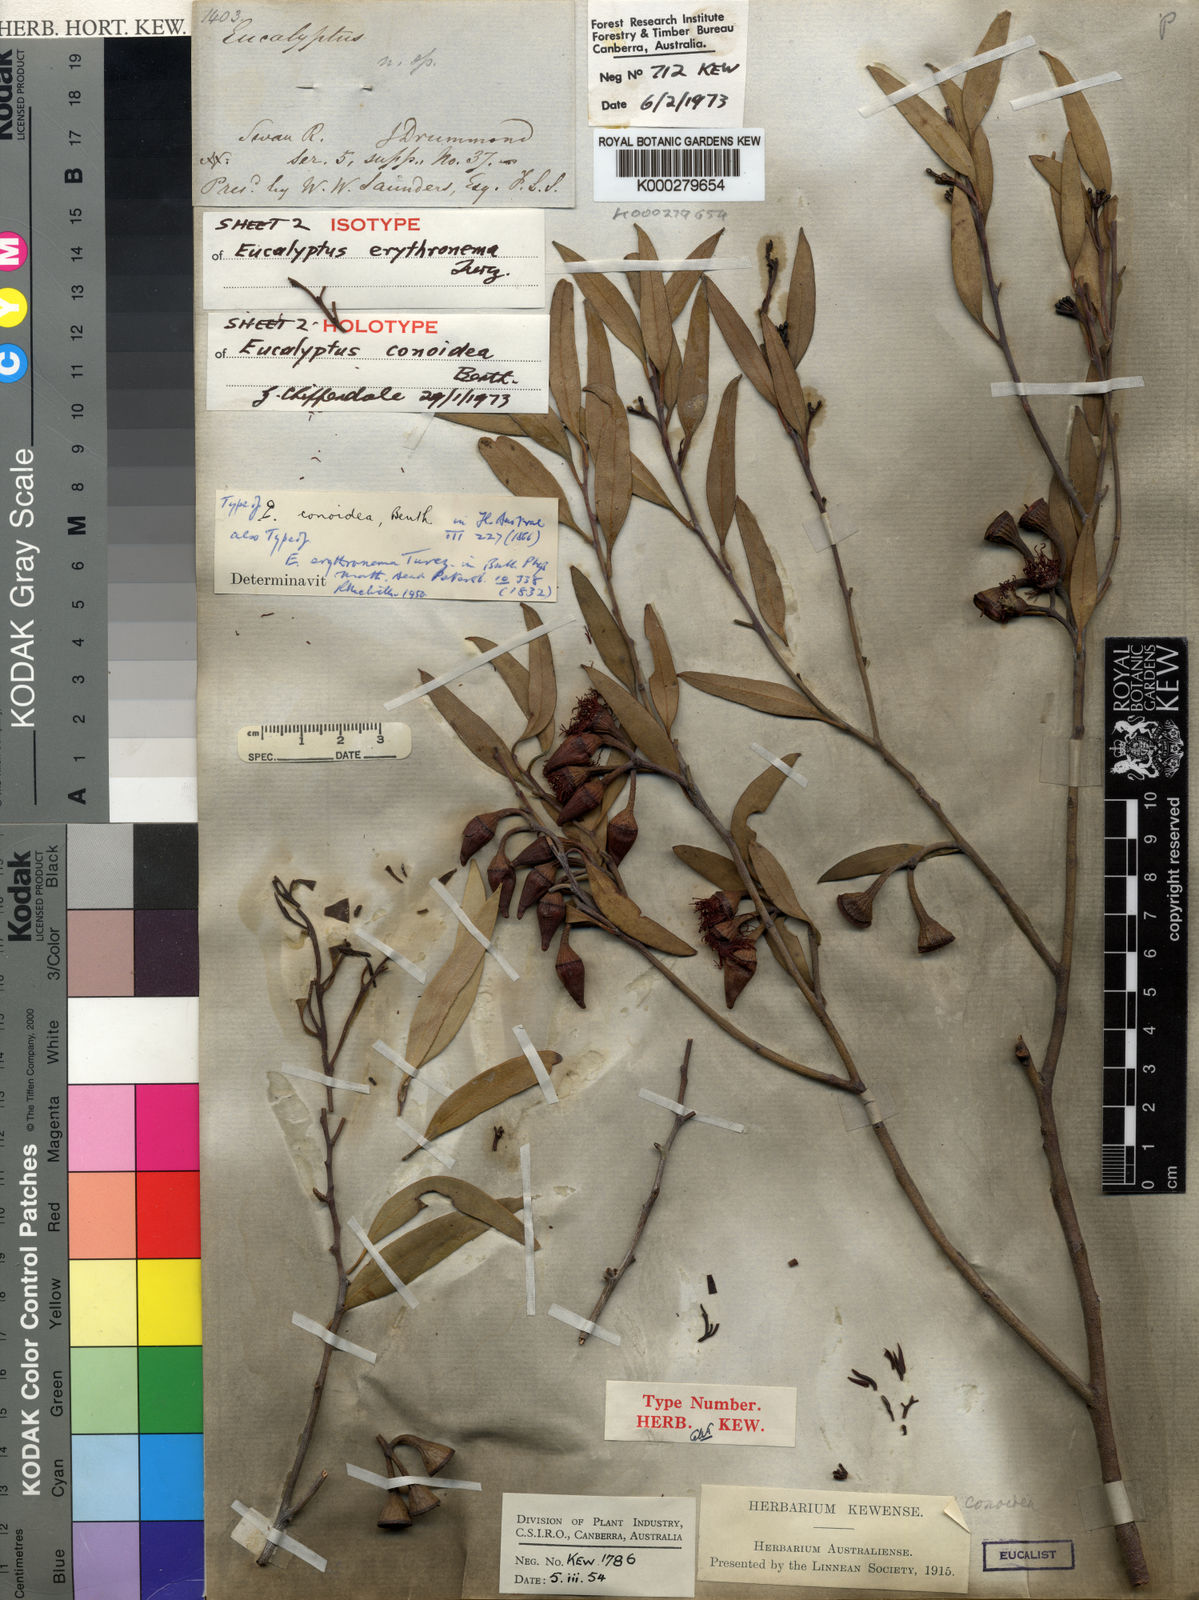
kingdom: Plantae
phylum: Tracheophyta
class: Magnoliopsida
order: Myrtales
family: Myrtaceae
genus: Eucalyptus
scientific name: Eucalyptus erythronema
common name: Red-flowered mallee
